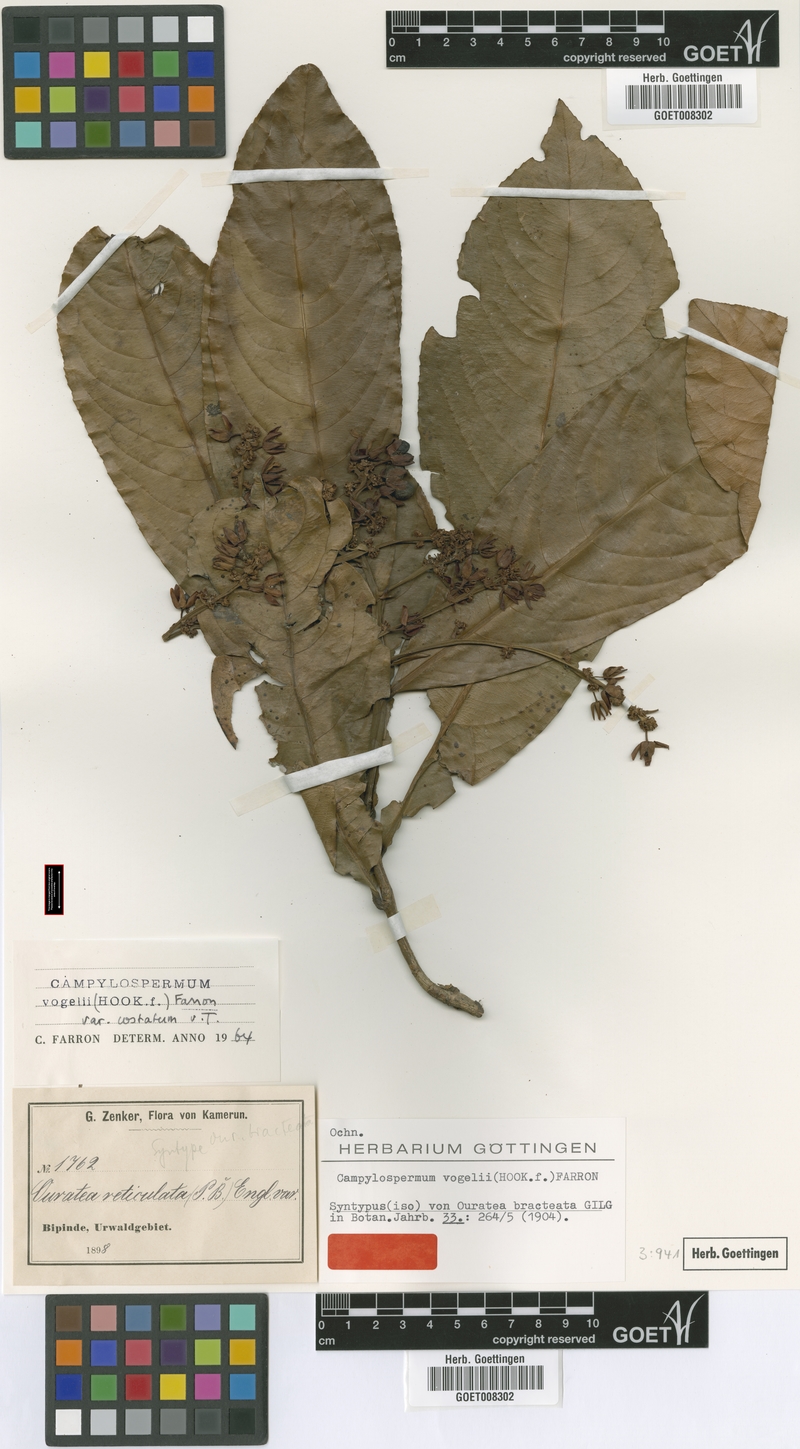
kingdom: Plantae
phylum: Tracheophyta
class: Magnoliopsida
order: Malpighiales
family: Ochnaceae
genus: Campylospermum
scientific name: Campylospermum vogelii
